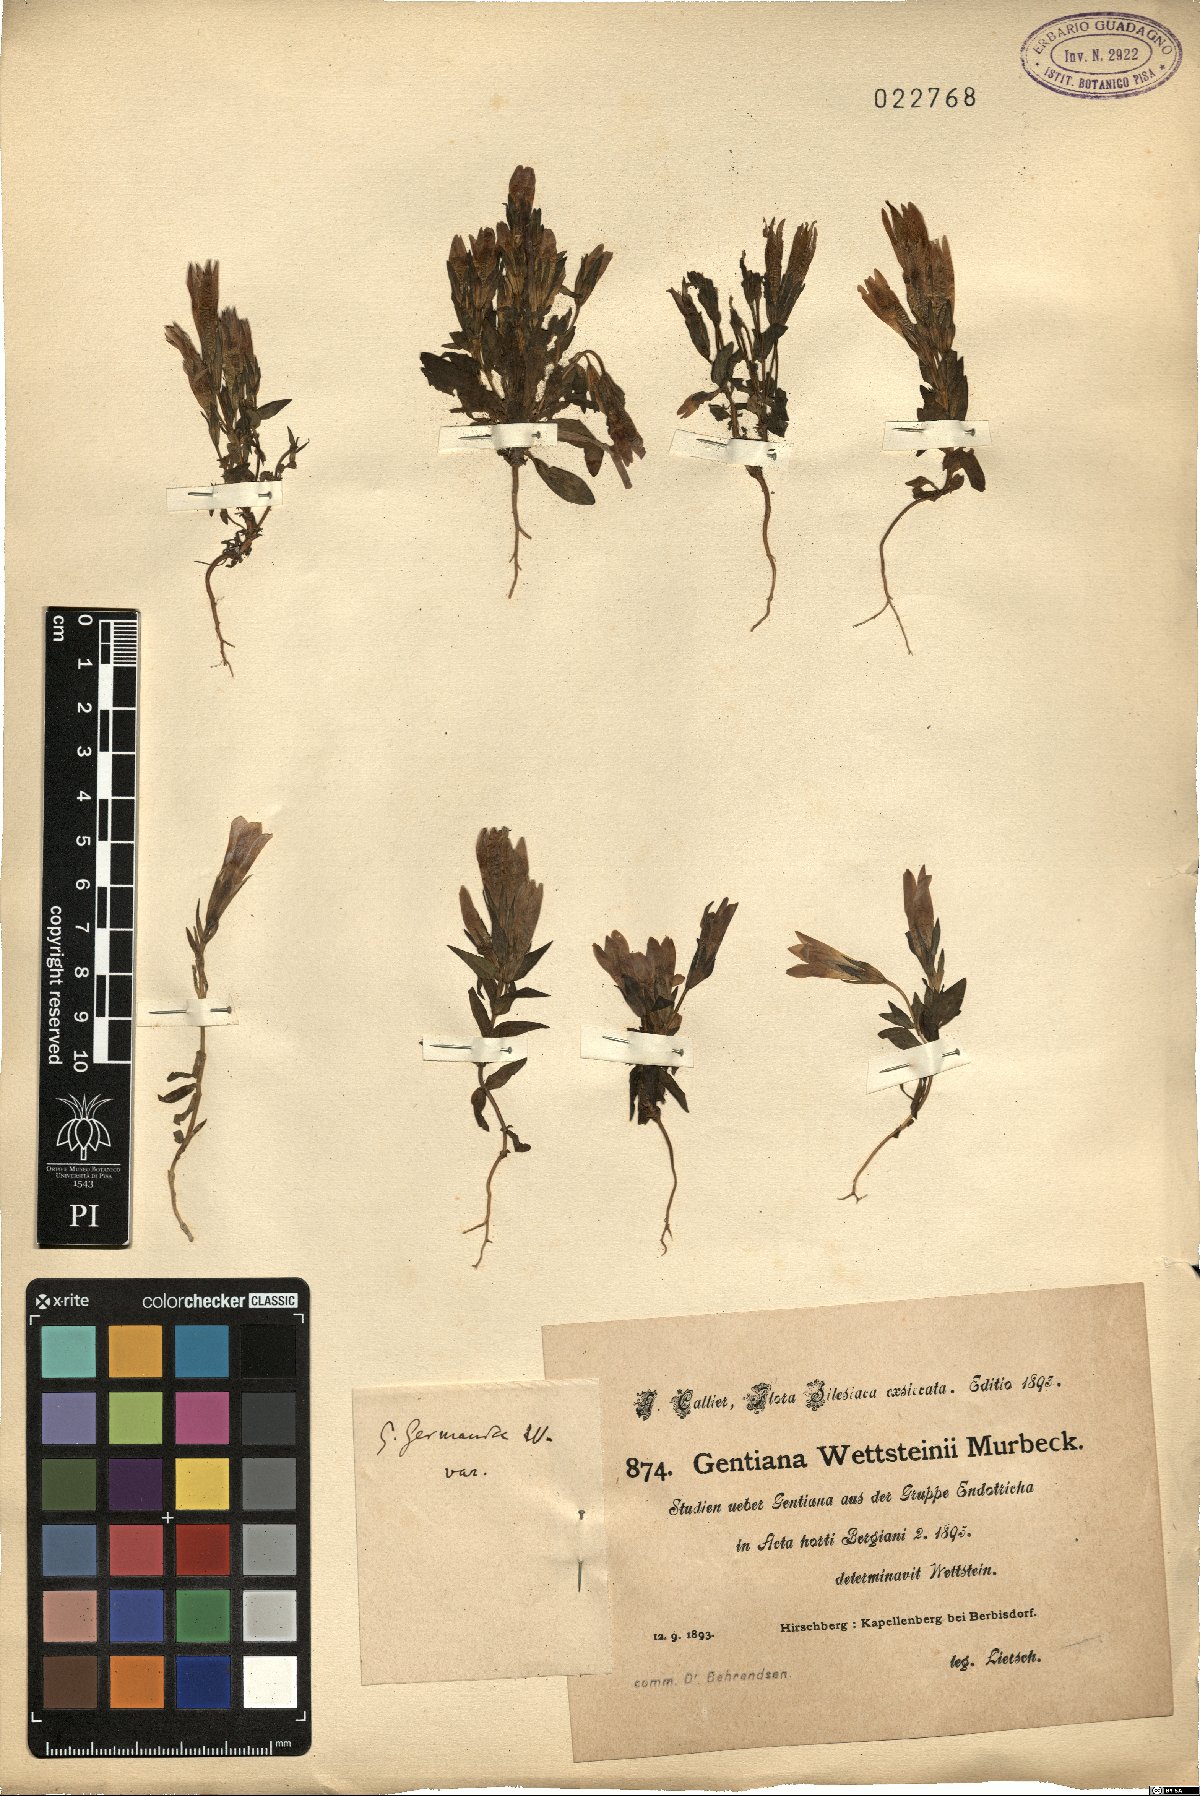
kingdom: Plantae
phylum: Tracheophyta
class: Magnoliopsida
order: Gentianales
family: Gentianaceae
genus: Gentianella
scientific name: Gentianella germanica
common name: Chiltern-gentian
